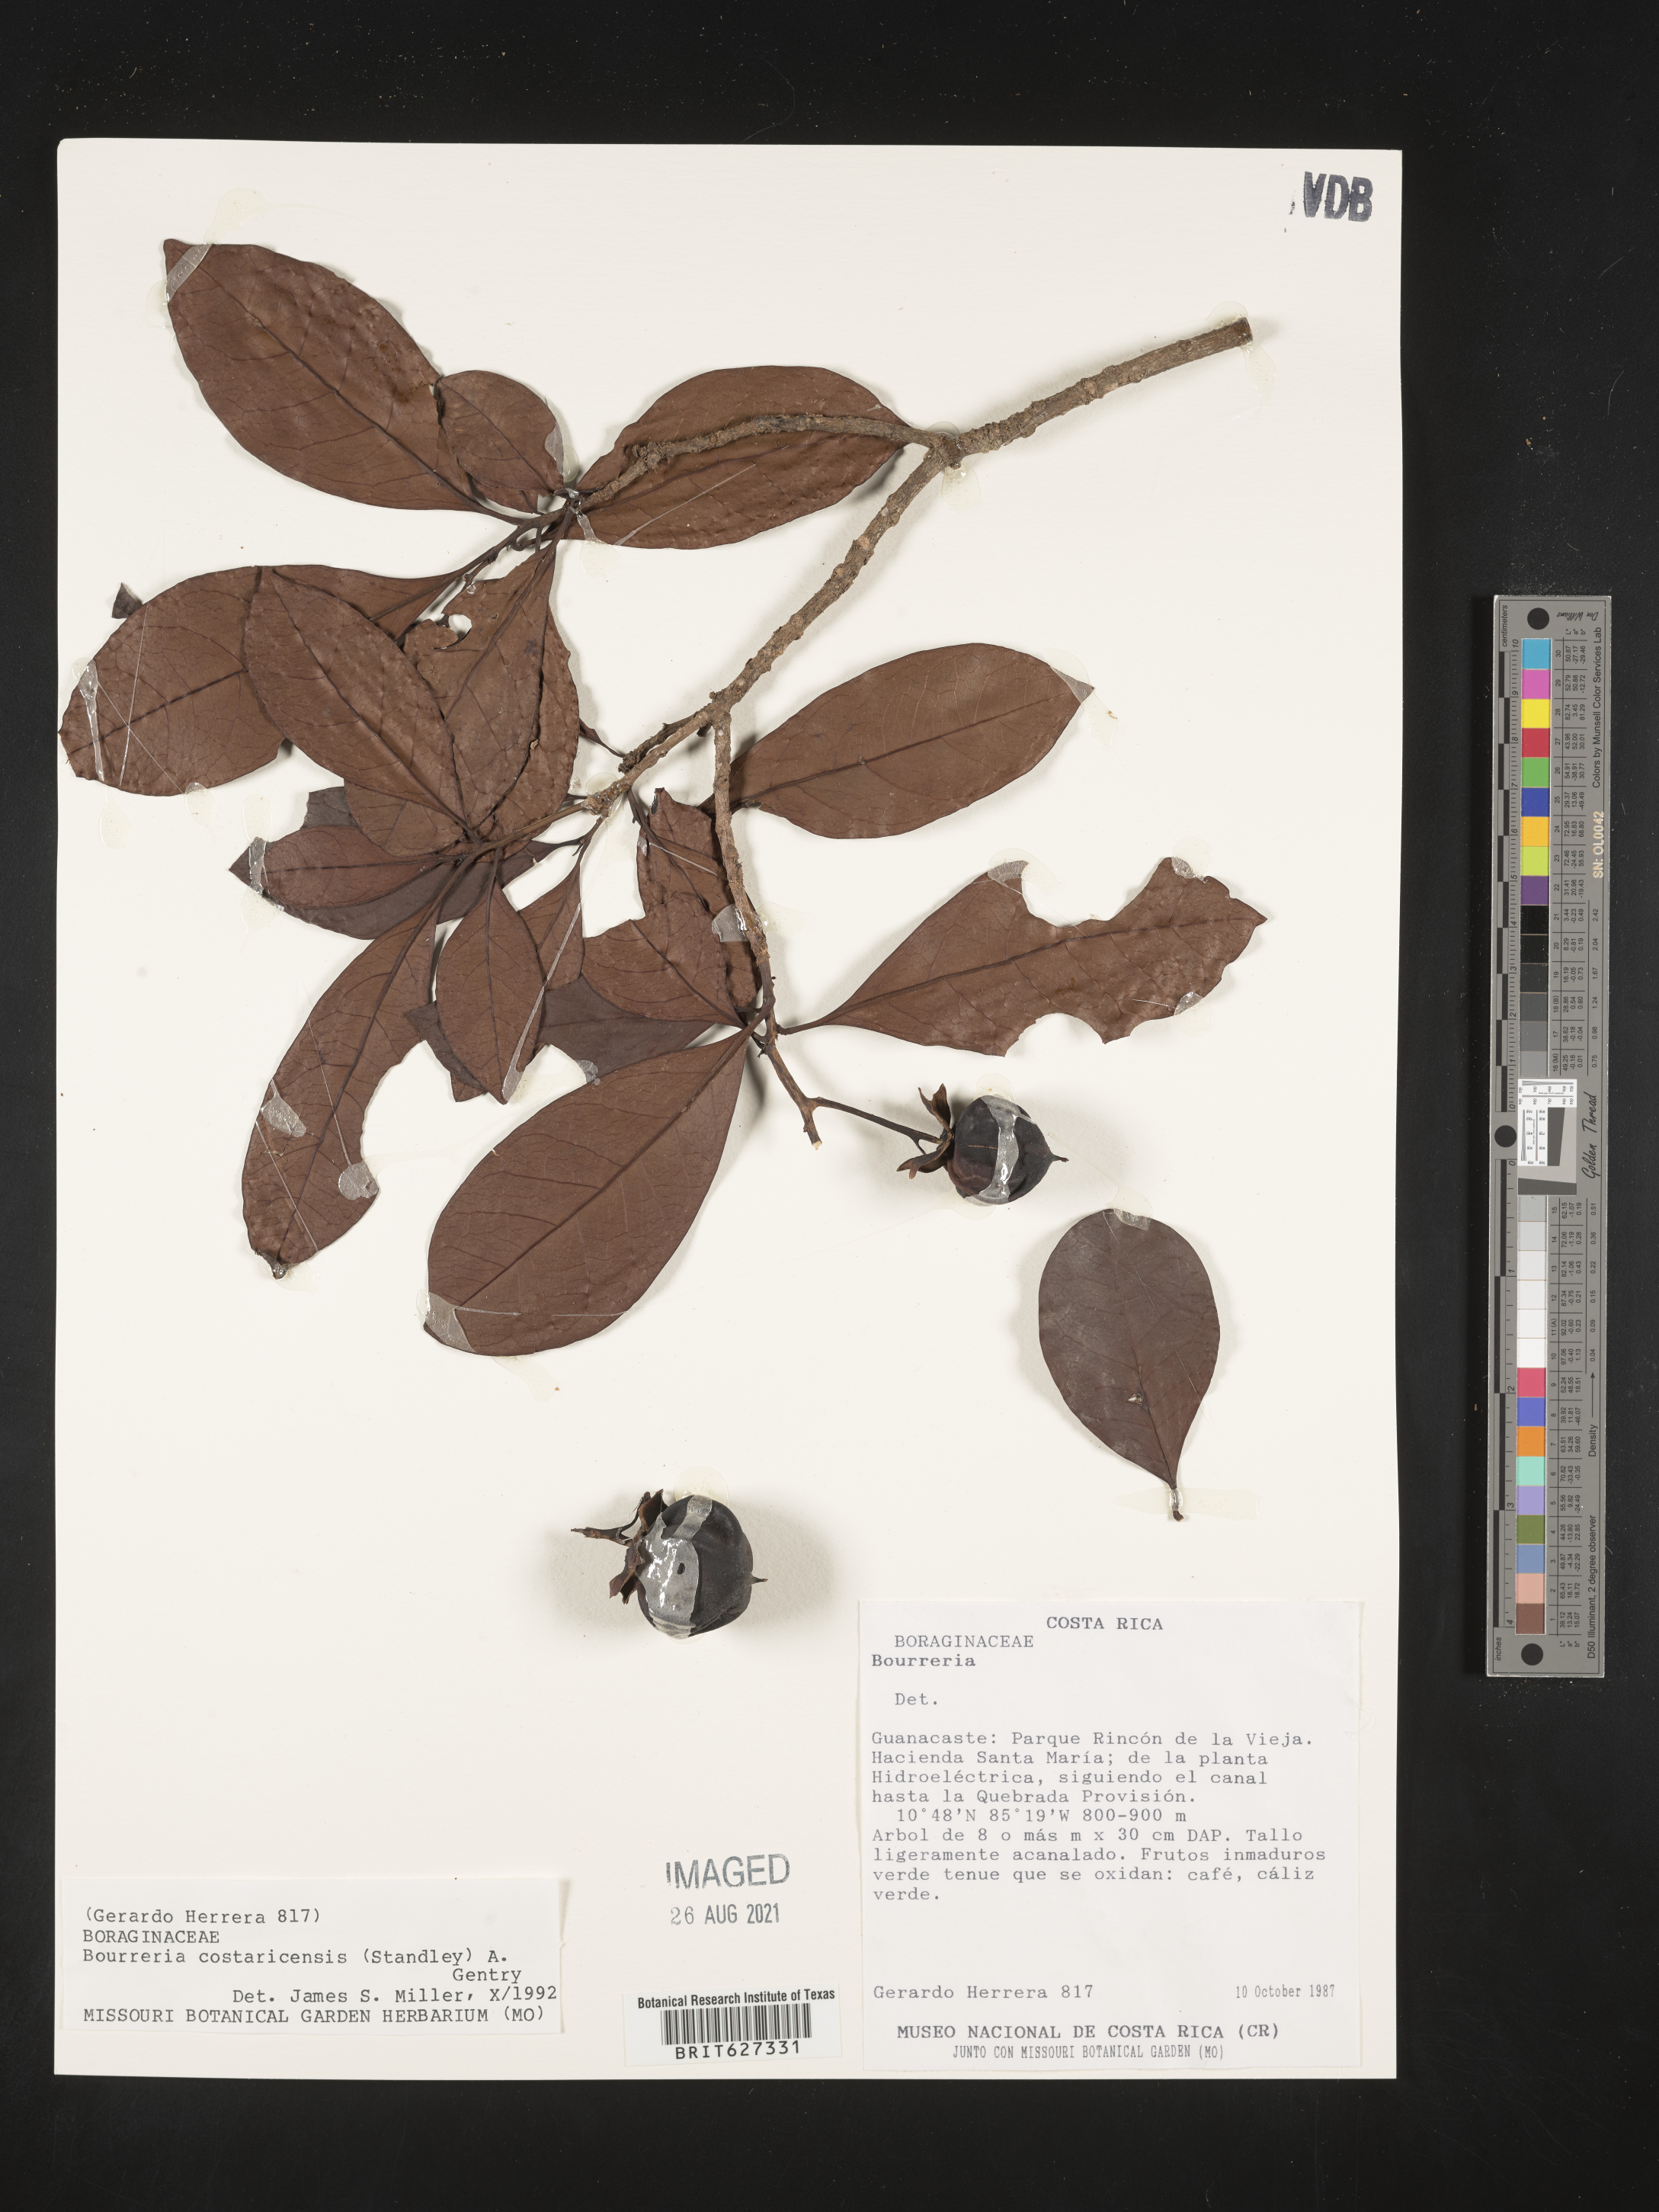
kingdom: Plantae
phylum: Tracheophyta
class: Magnoliopsida
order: Boraginales
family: Ehretiaceae
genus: Bourreria
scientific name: Bourreria costaricensis
